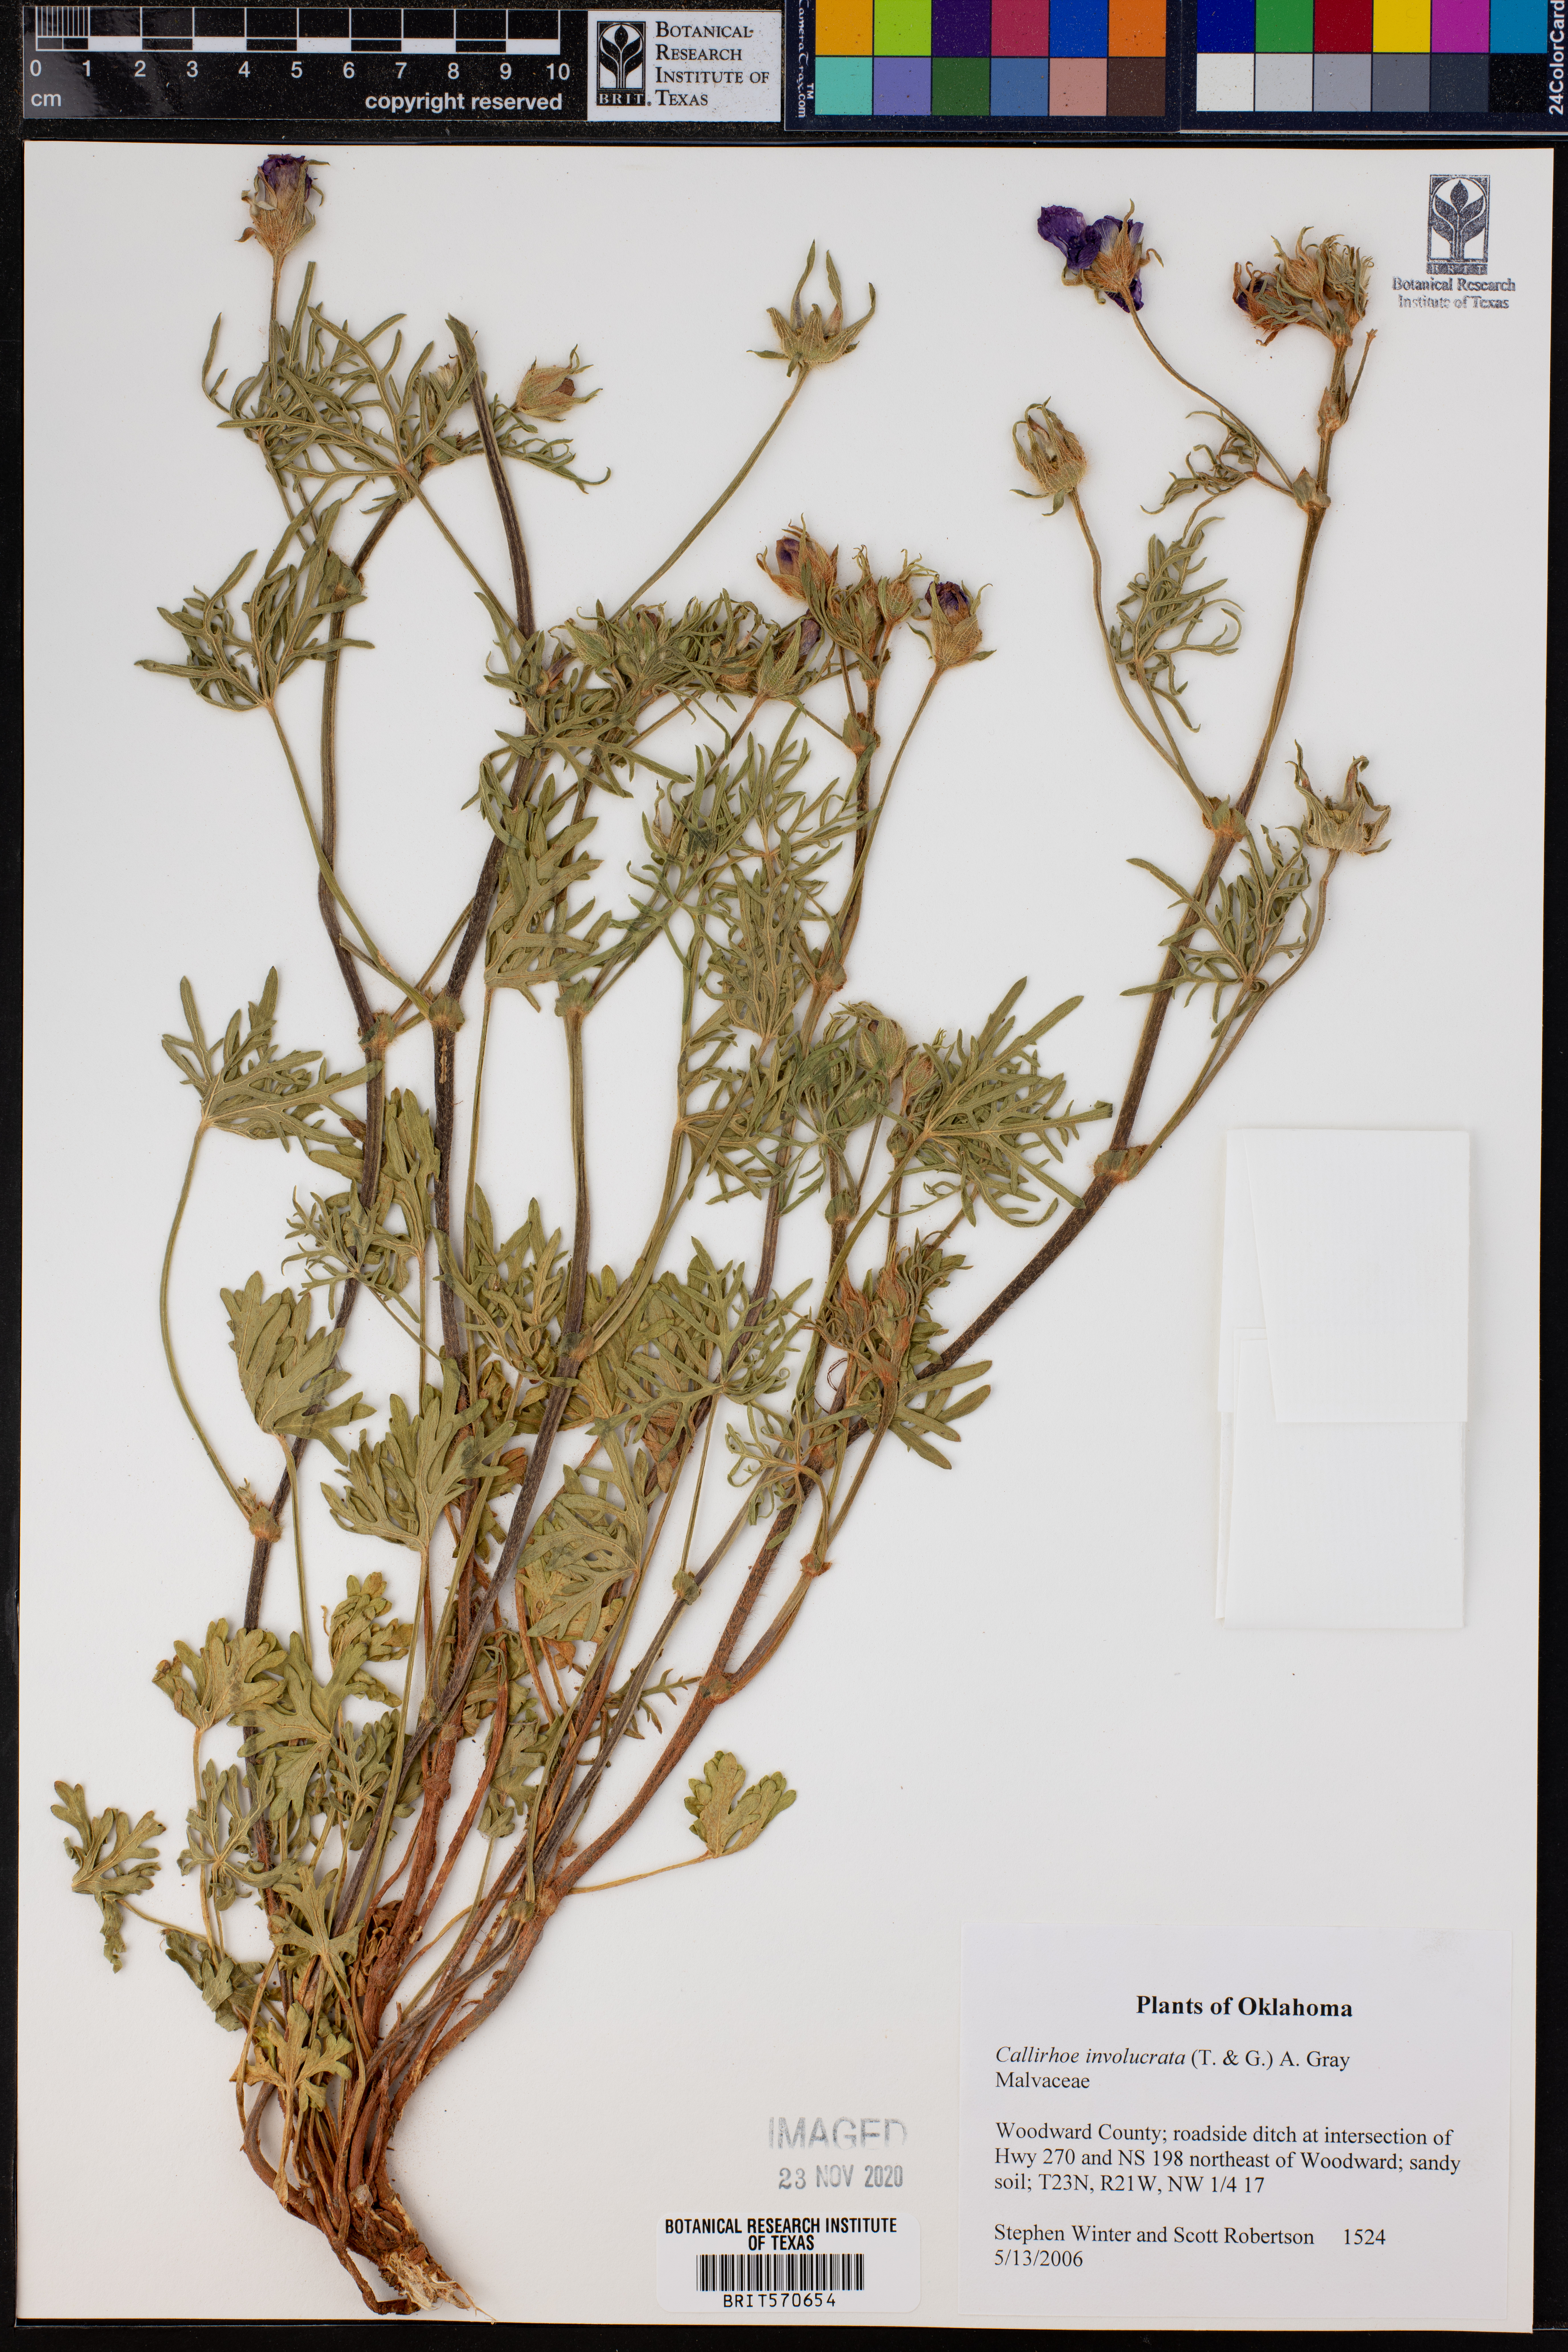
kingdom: Plantae
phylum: Tracheophyta
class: Magnoliopsida
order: Malvales
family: Malvaceae
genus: Callirhoe
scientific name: Callirhoe involucrata
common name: Purple poppy-mallow
